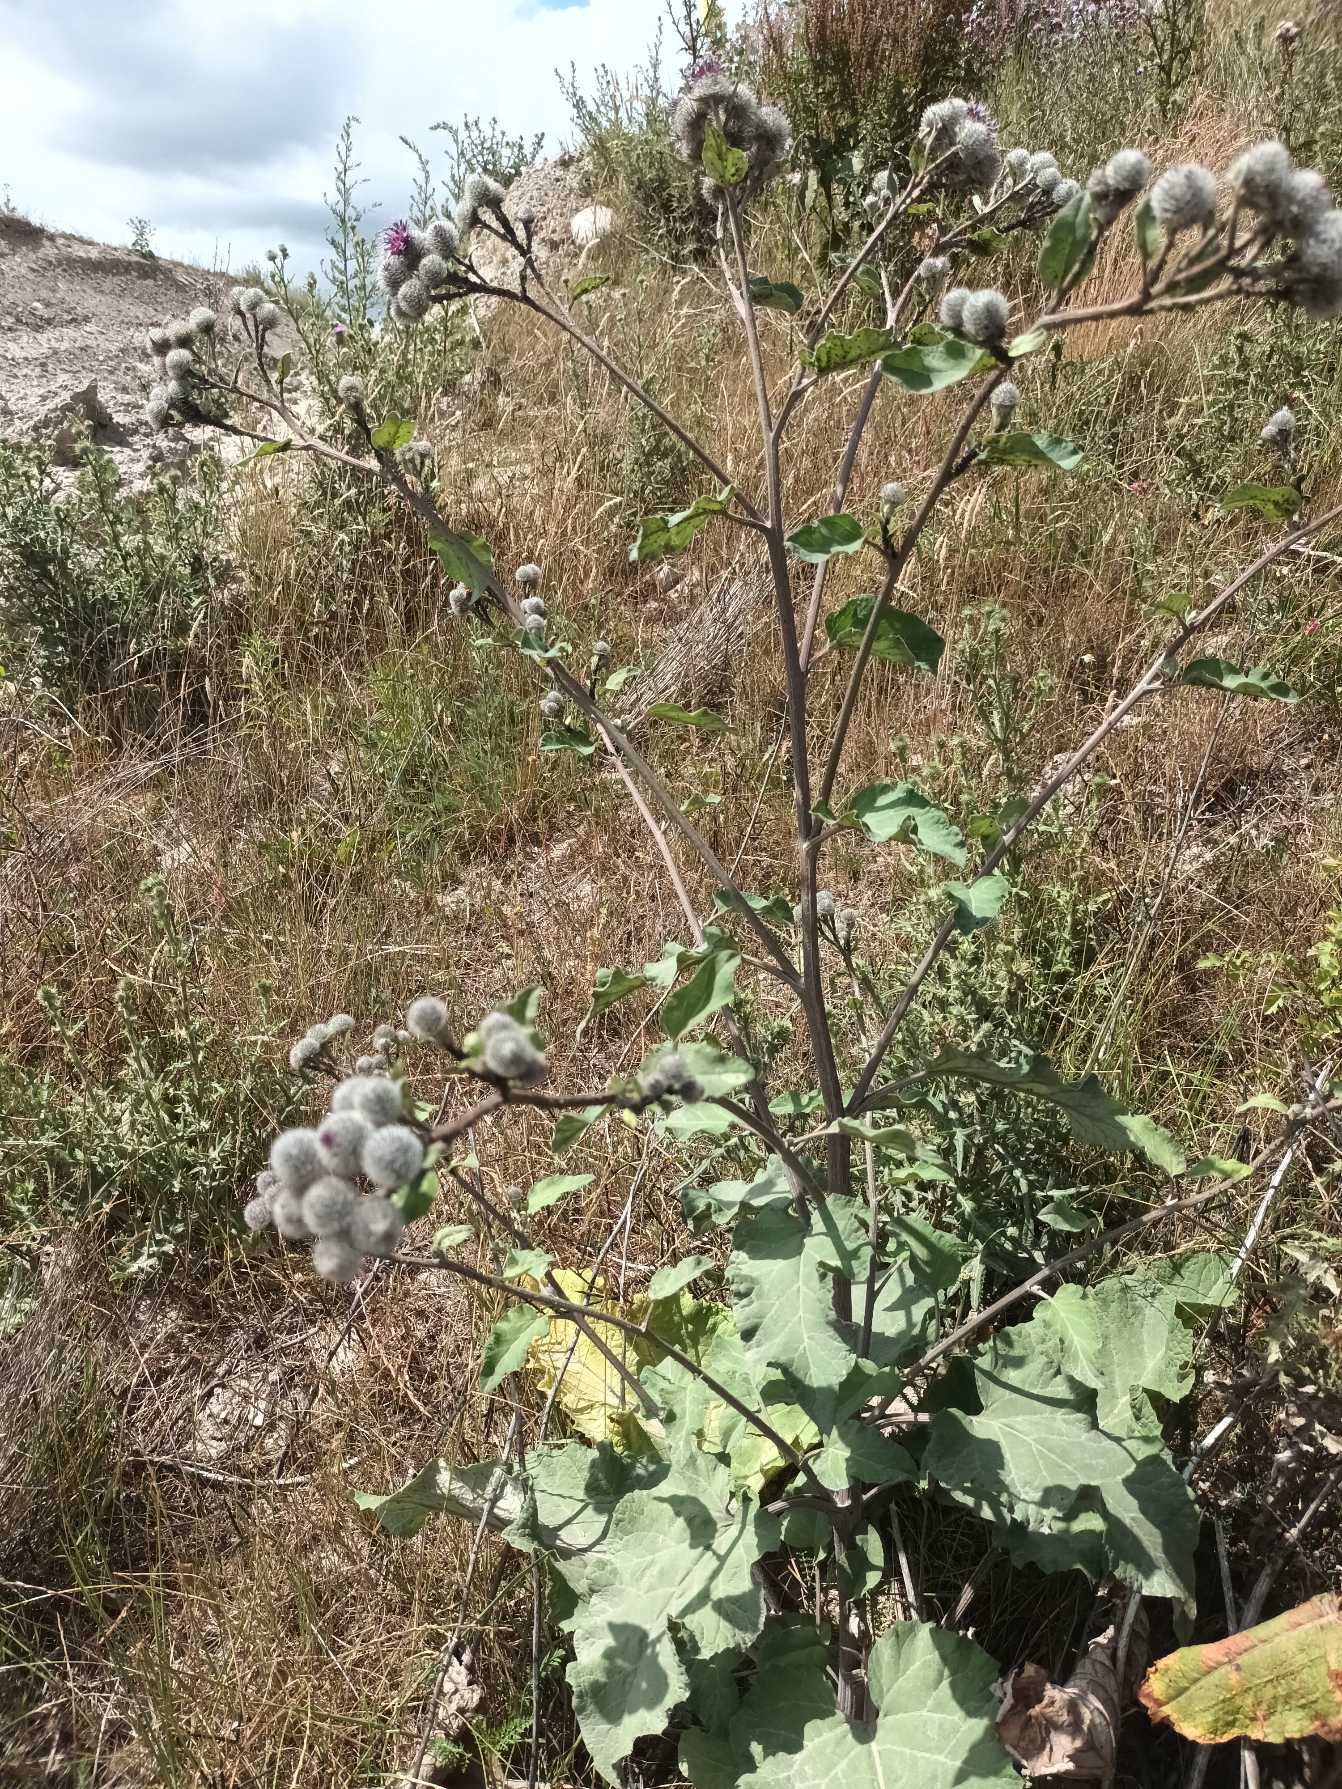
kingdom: Plantae
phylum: Tracheophyta
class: Magnoliopsida
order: Asterales
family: Asteraceae
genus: Arctium
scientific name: Arctium tomentosum
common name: Filtet burre
